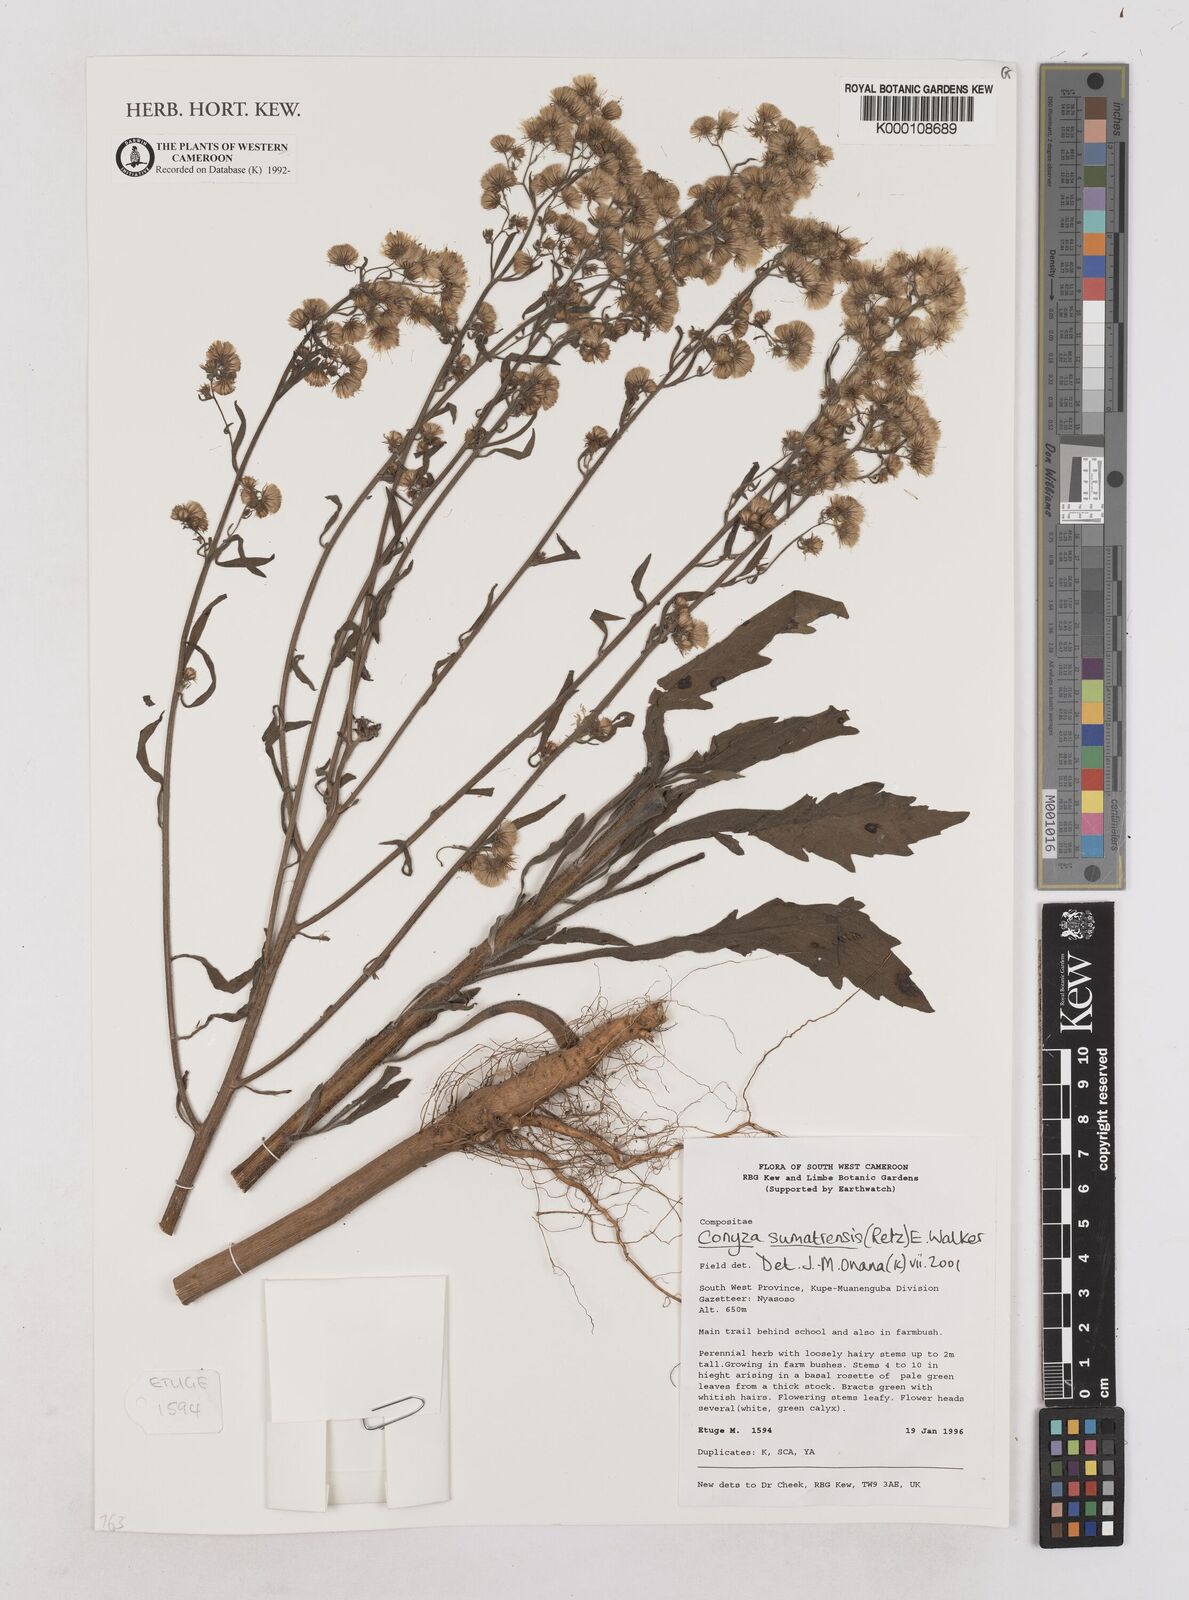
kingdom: Plantae
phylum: Tracheophyta
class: Magnoliopsida
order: Asterales
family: Asteraceae
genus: Erigeron
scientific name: Erigeron bonariensis
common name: Argentine fleabane
